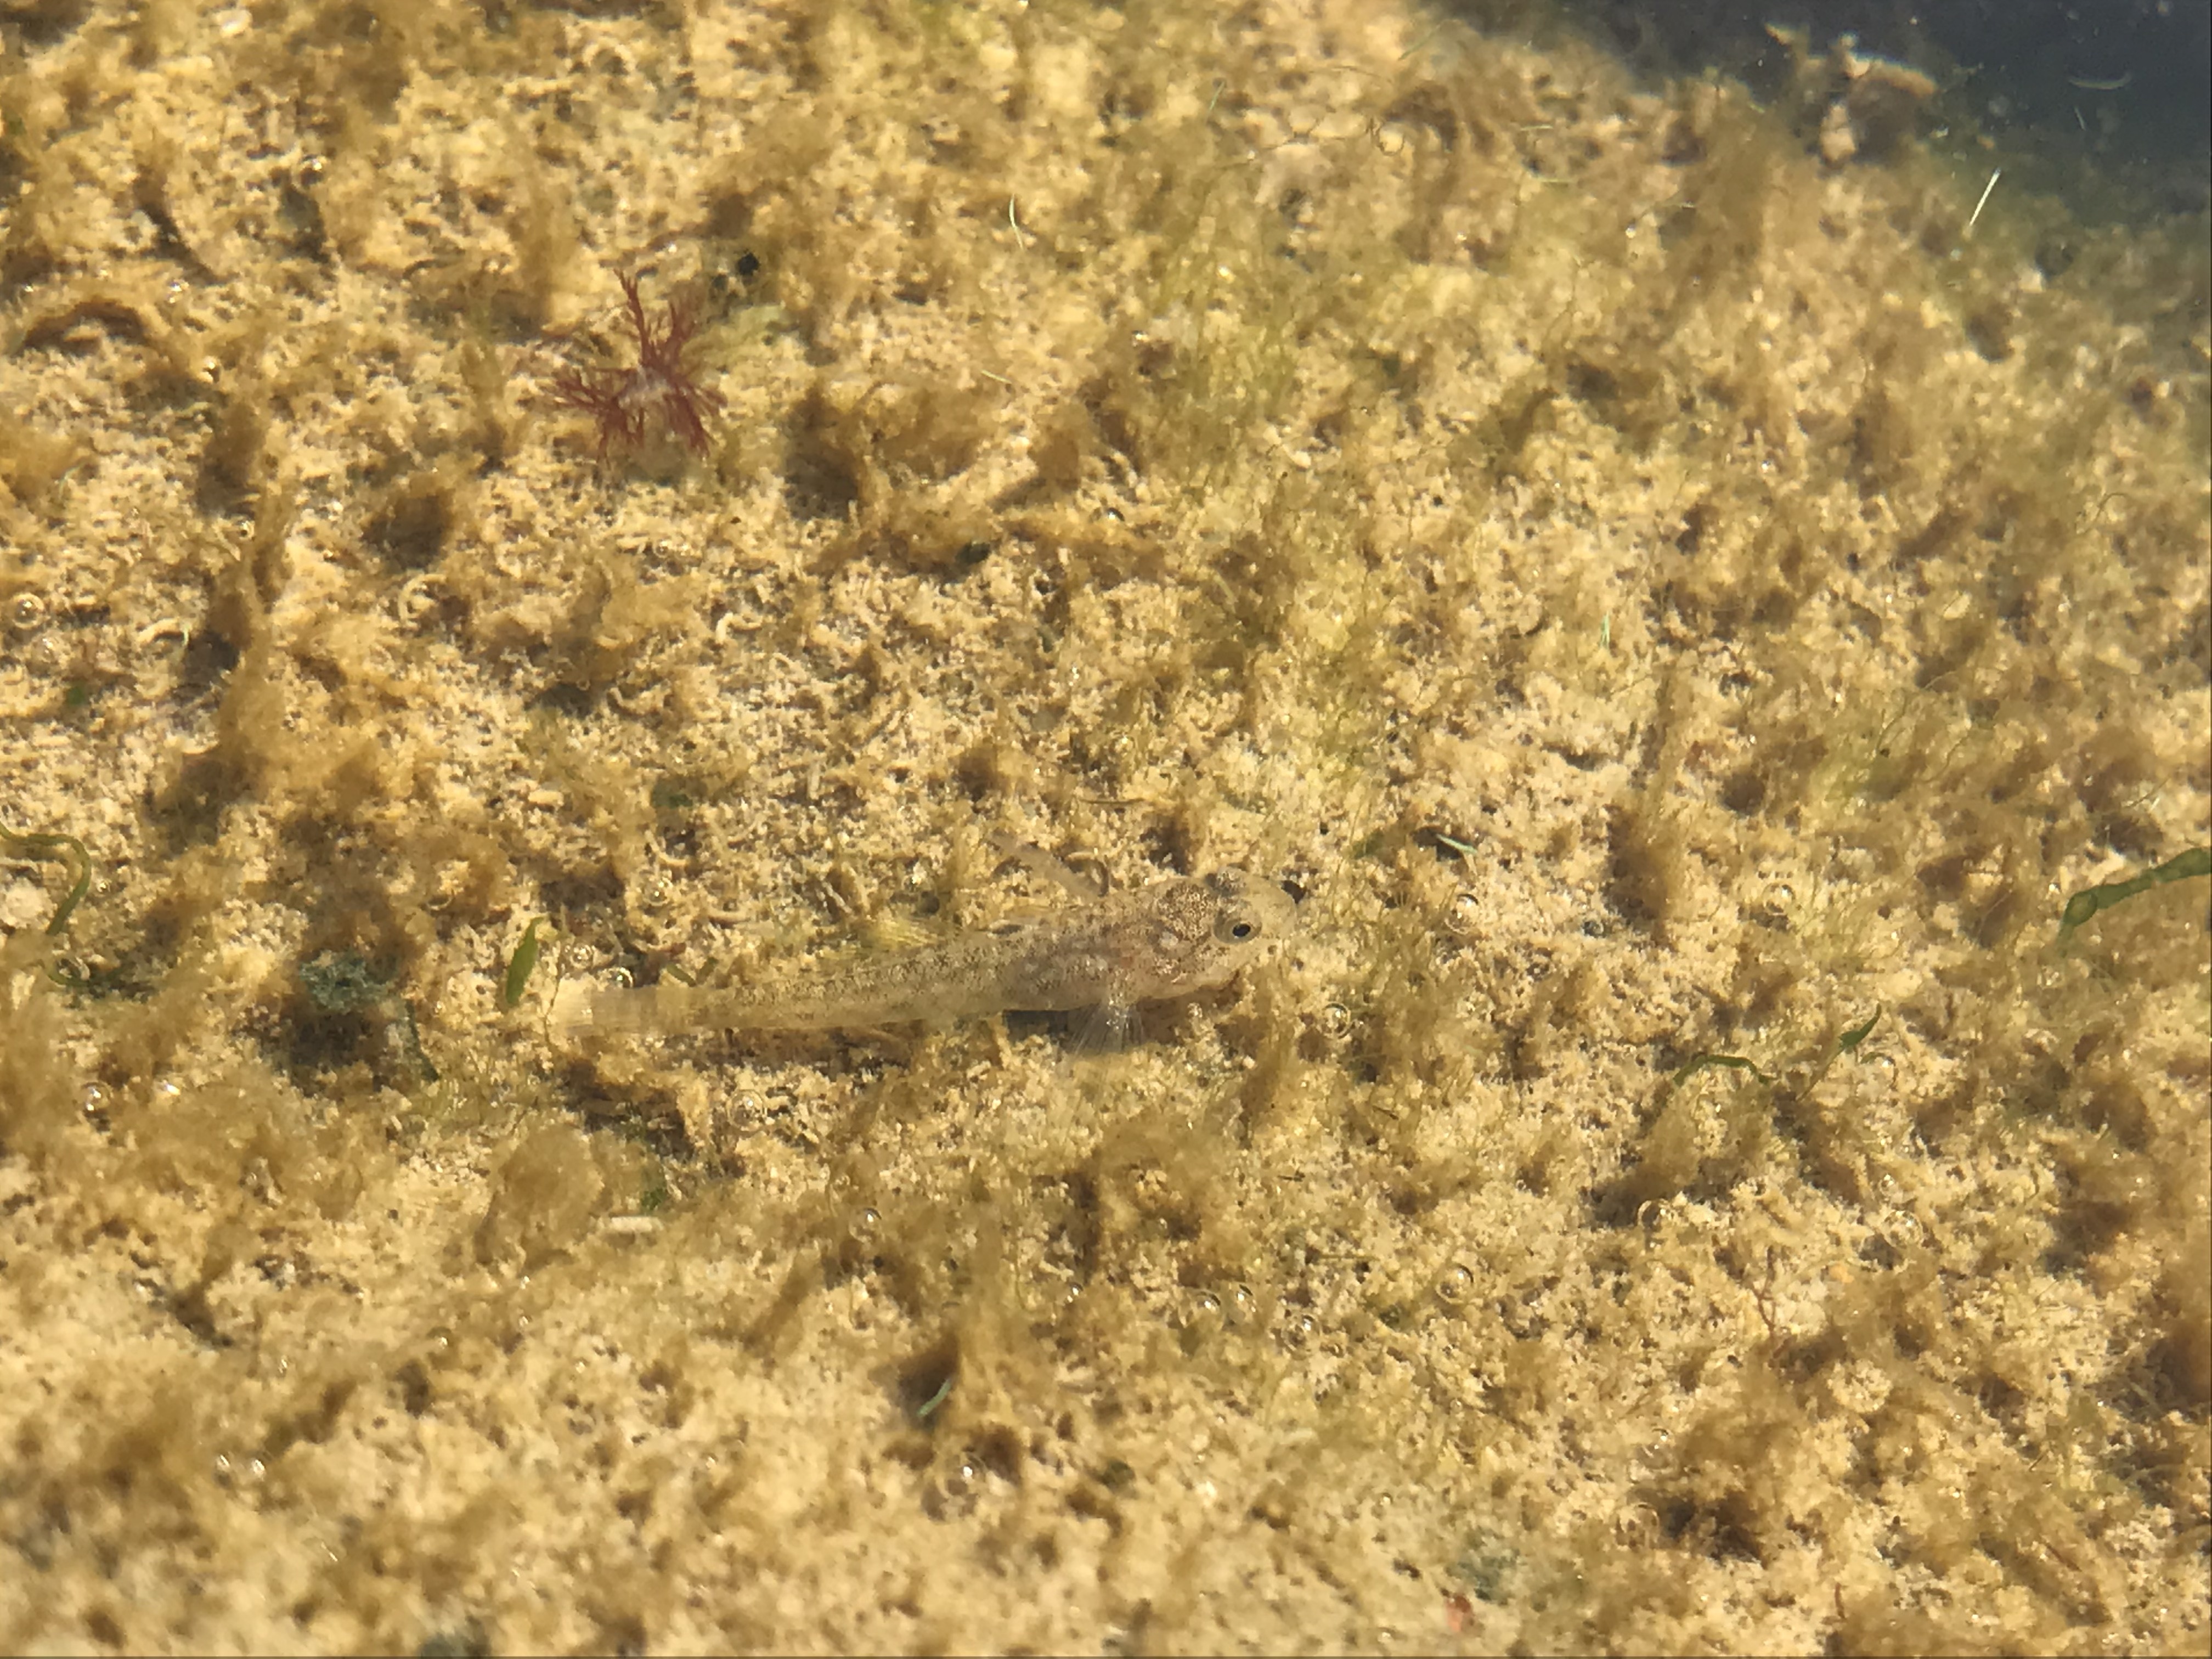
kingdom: Animalia
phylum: Chordata
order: Perciformes
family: Gobiidae
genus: Pomatoschistus
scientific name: Pomatoschistus microps
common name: Common goby
